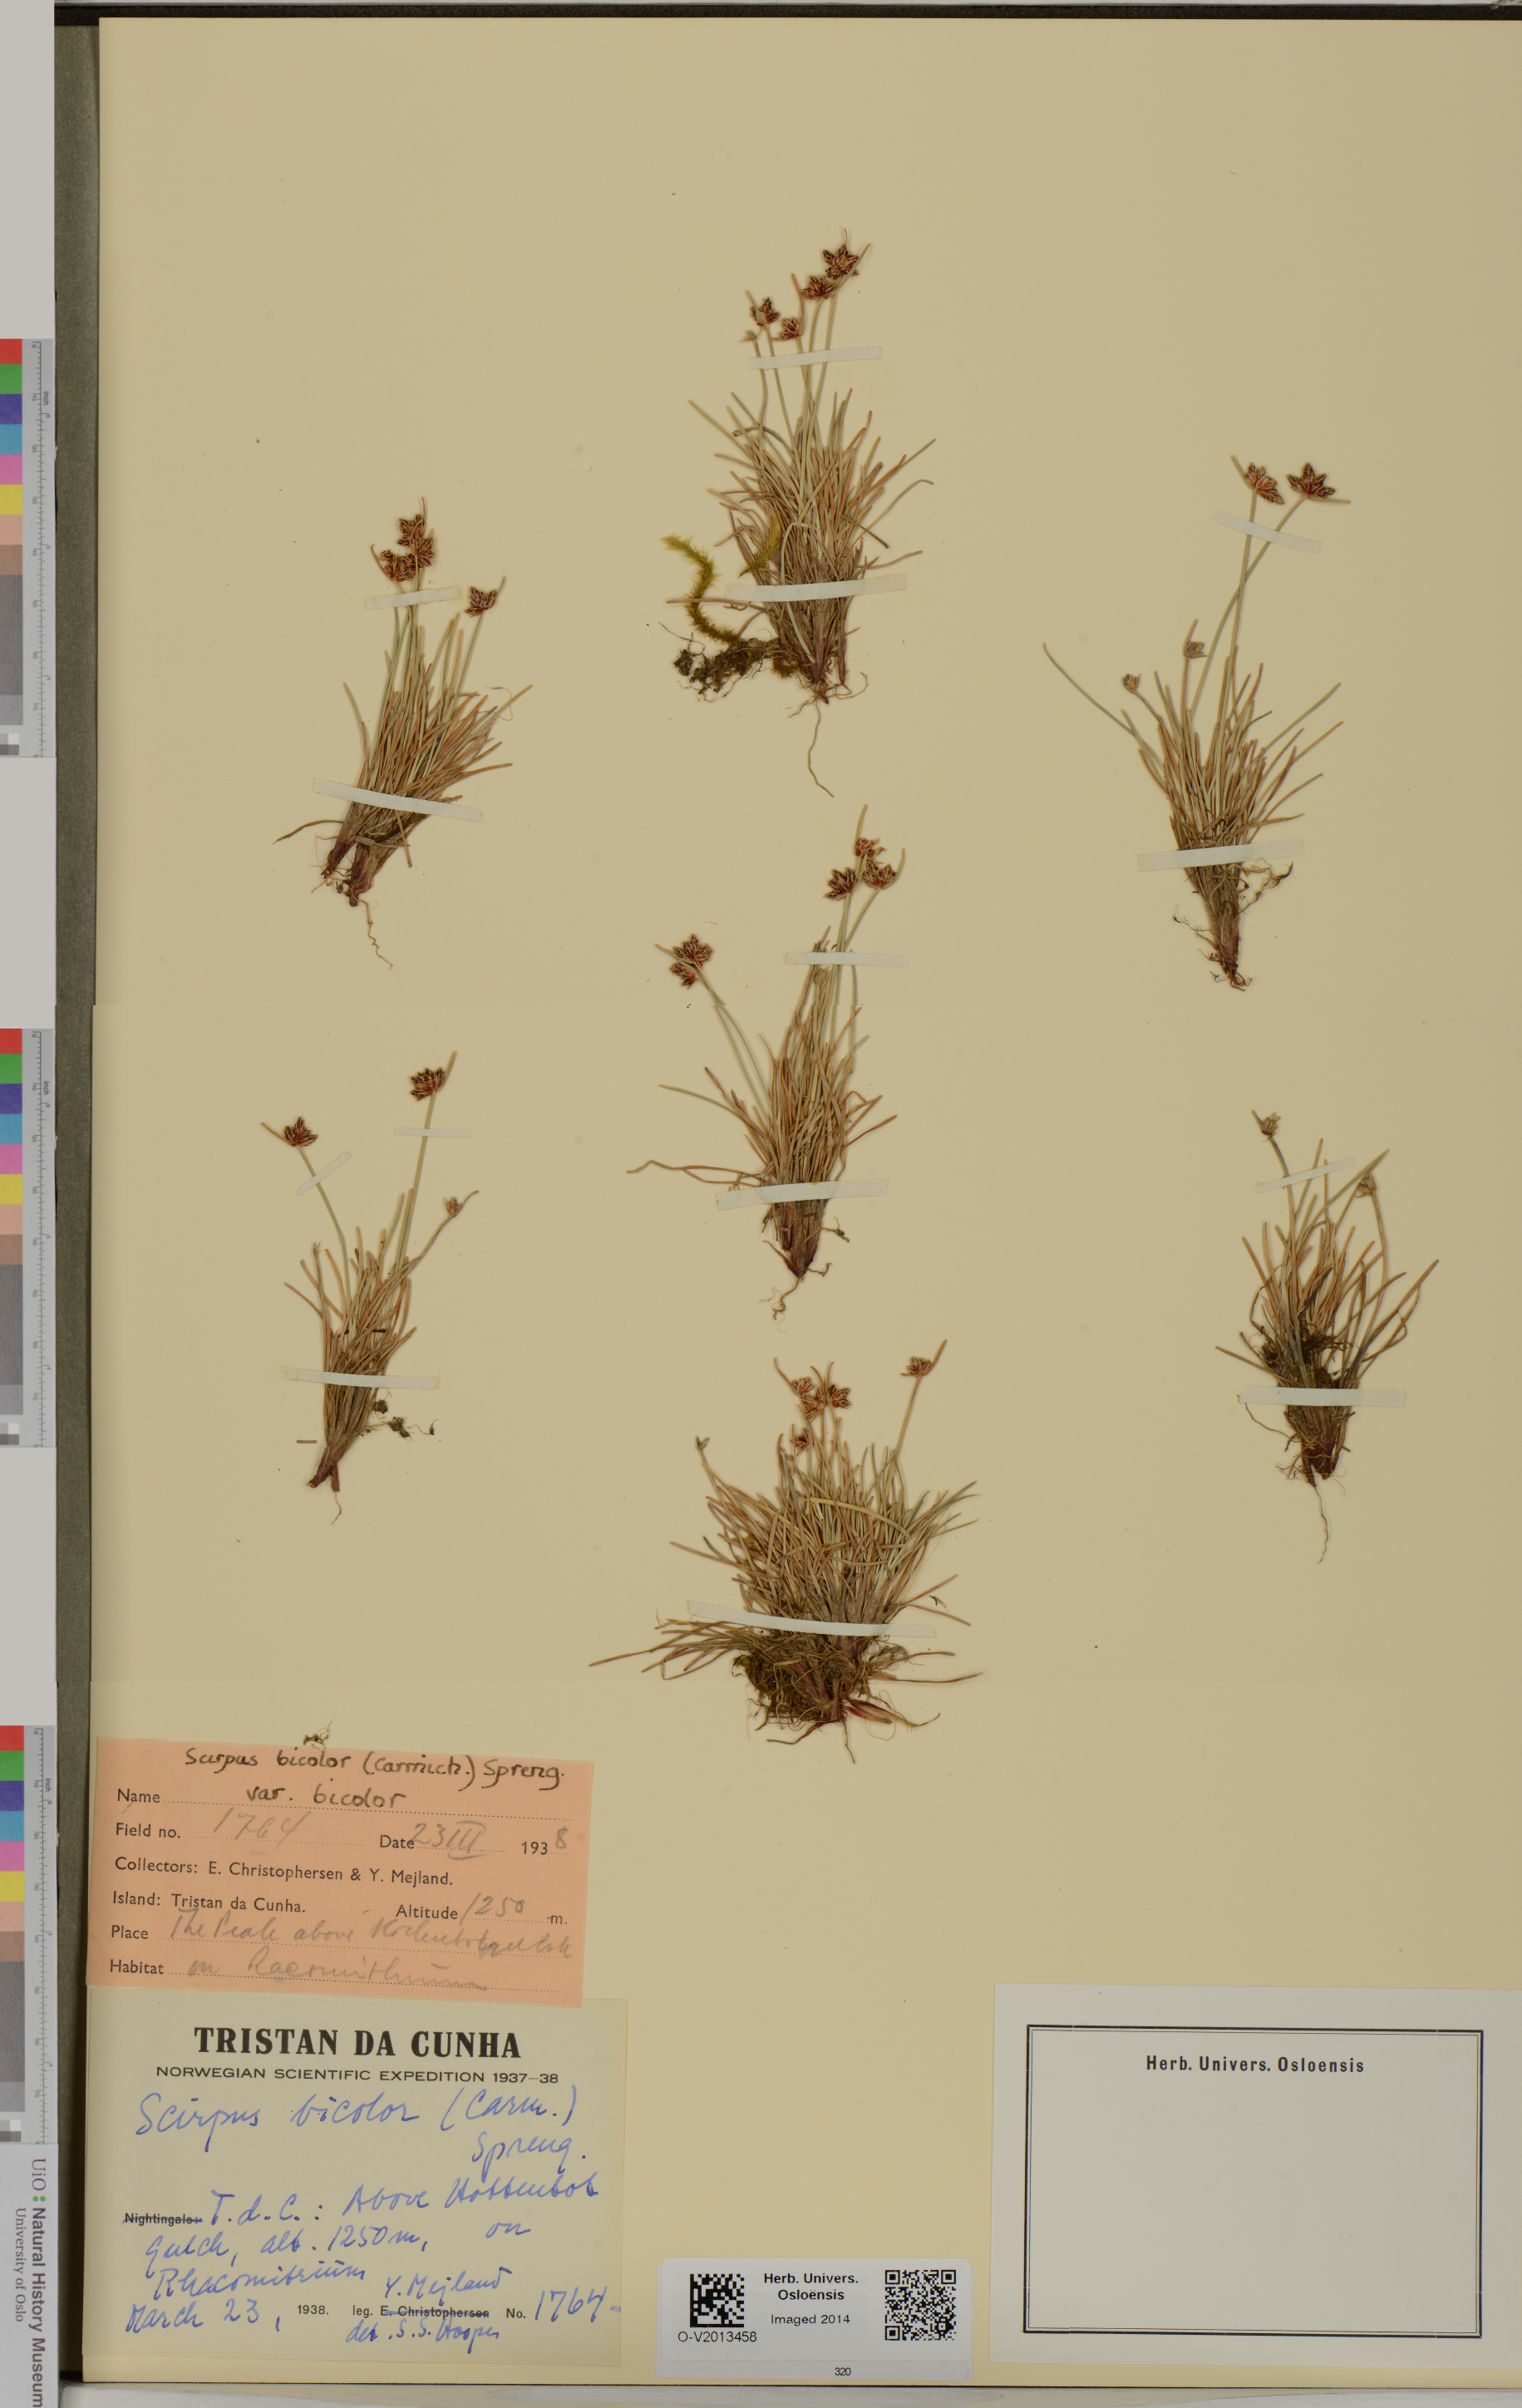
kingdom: Plantae
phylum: Tracheophyta
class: Liliopsida
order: Poales
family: Cyperaceae
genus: Isolepis
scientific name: Isolepis bicolor
